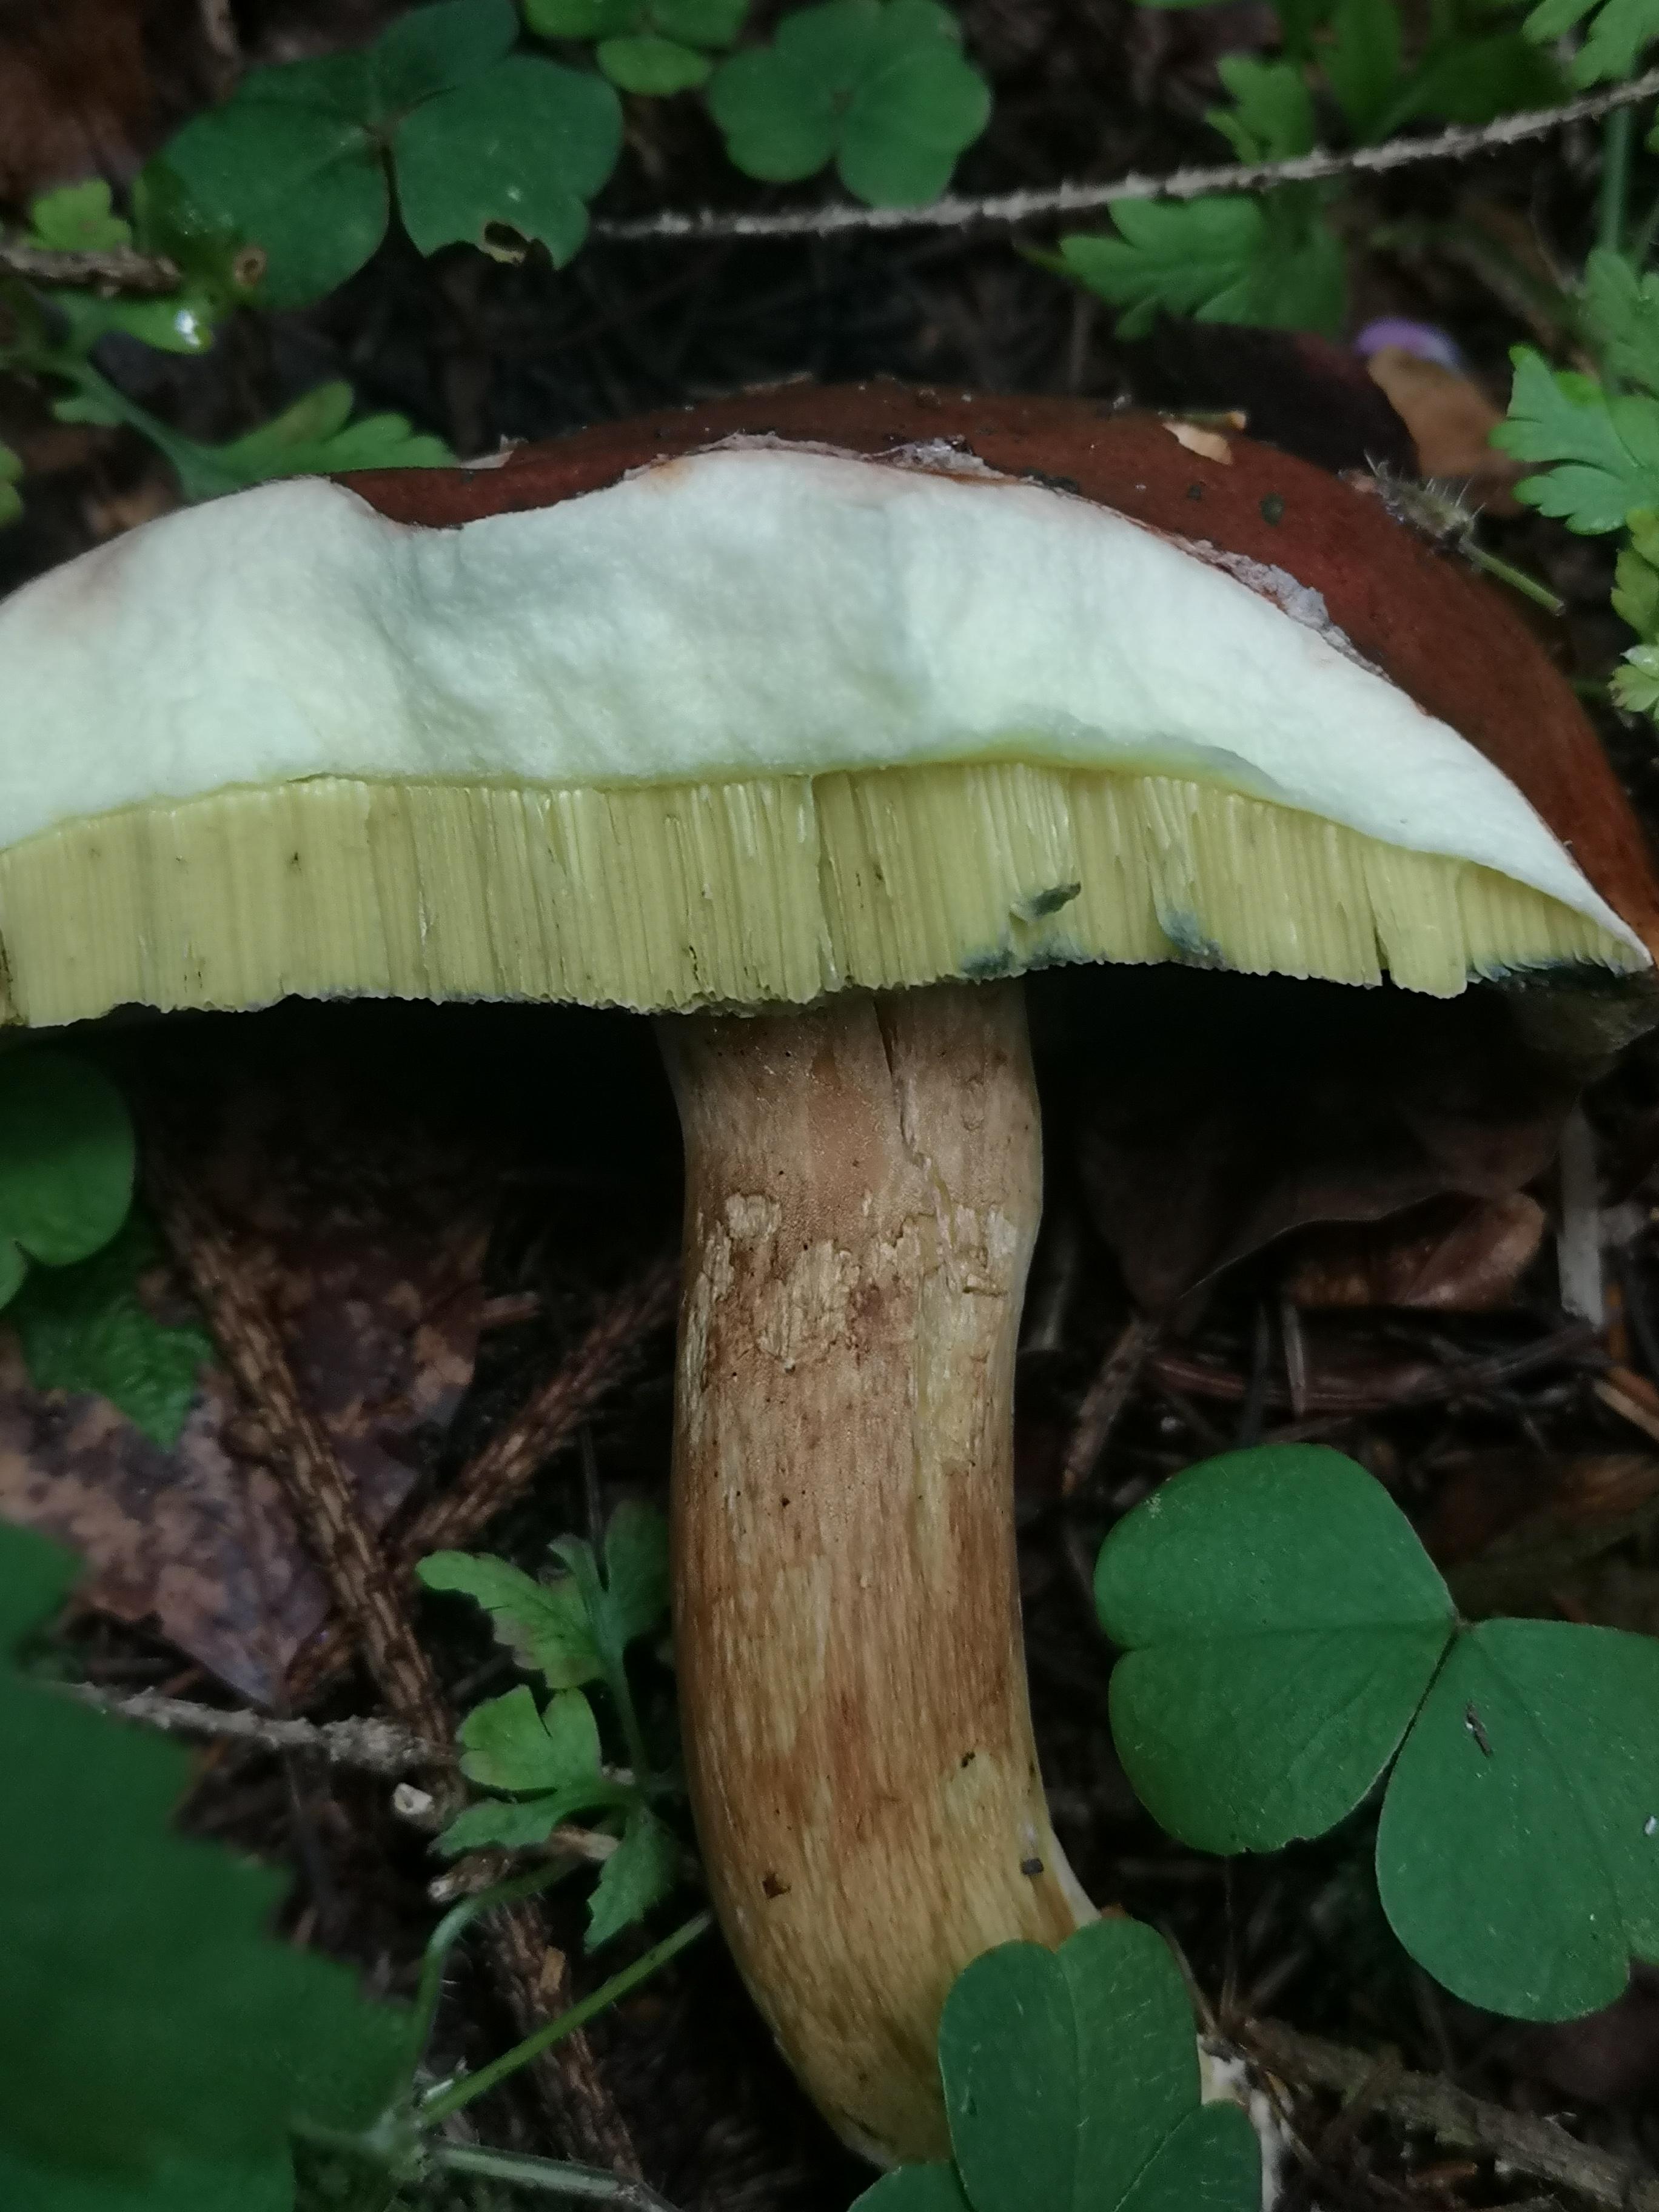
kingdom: Fungi
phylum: Basidiomycota
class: Agaricomycetes
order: Boletales
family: Boletaceae
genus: Imleria
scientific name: Imleria badia
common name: brunstokket rørhat
